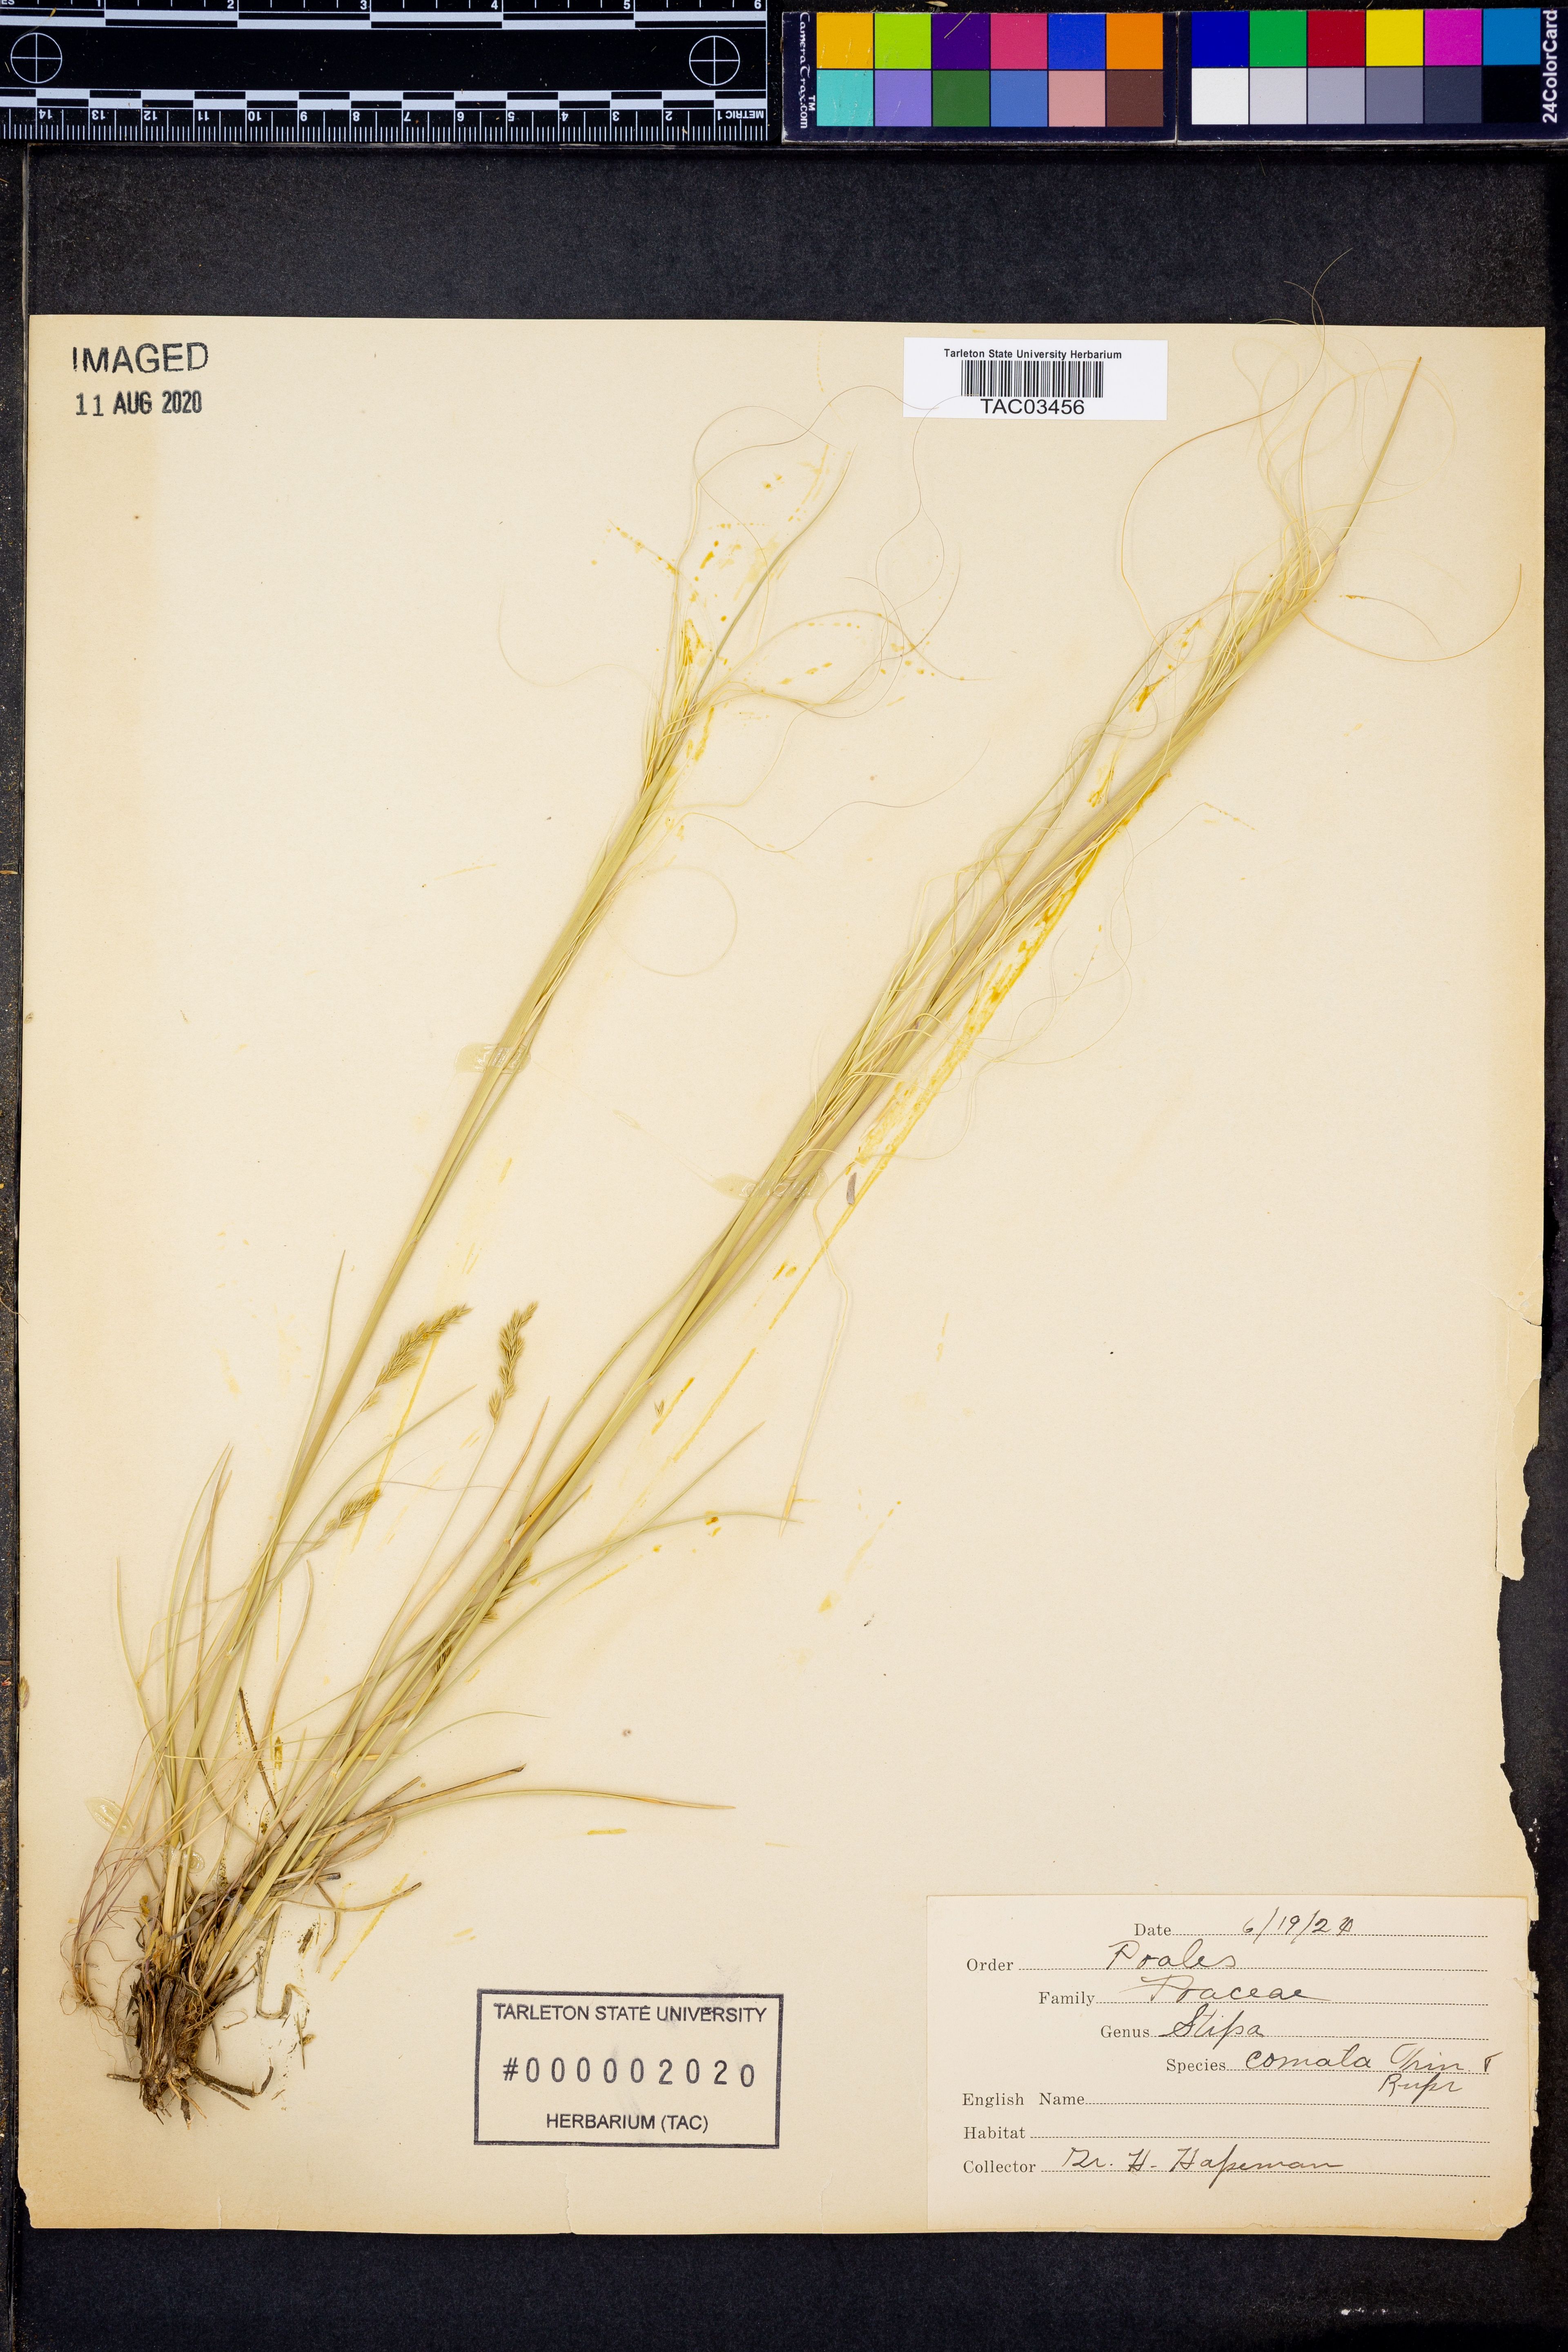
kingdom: Plantae
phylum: Tracheophyta
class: Liliopsida
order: Poales
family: Poaceae
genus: Hesperostipa
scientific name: Hesperostipa comata
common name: Needle-and-thread grass
